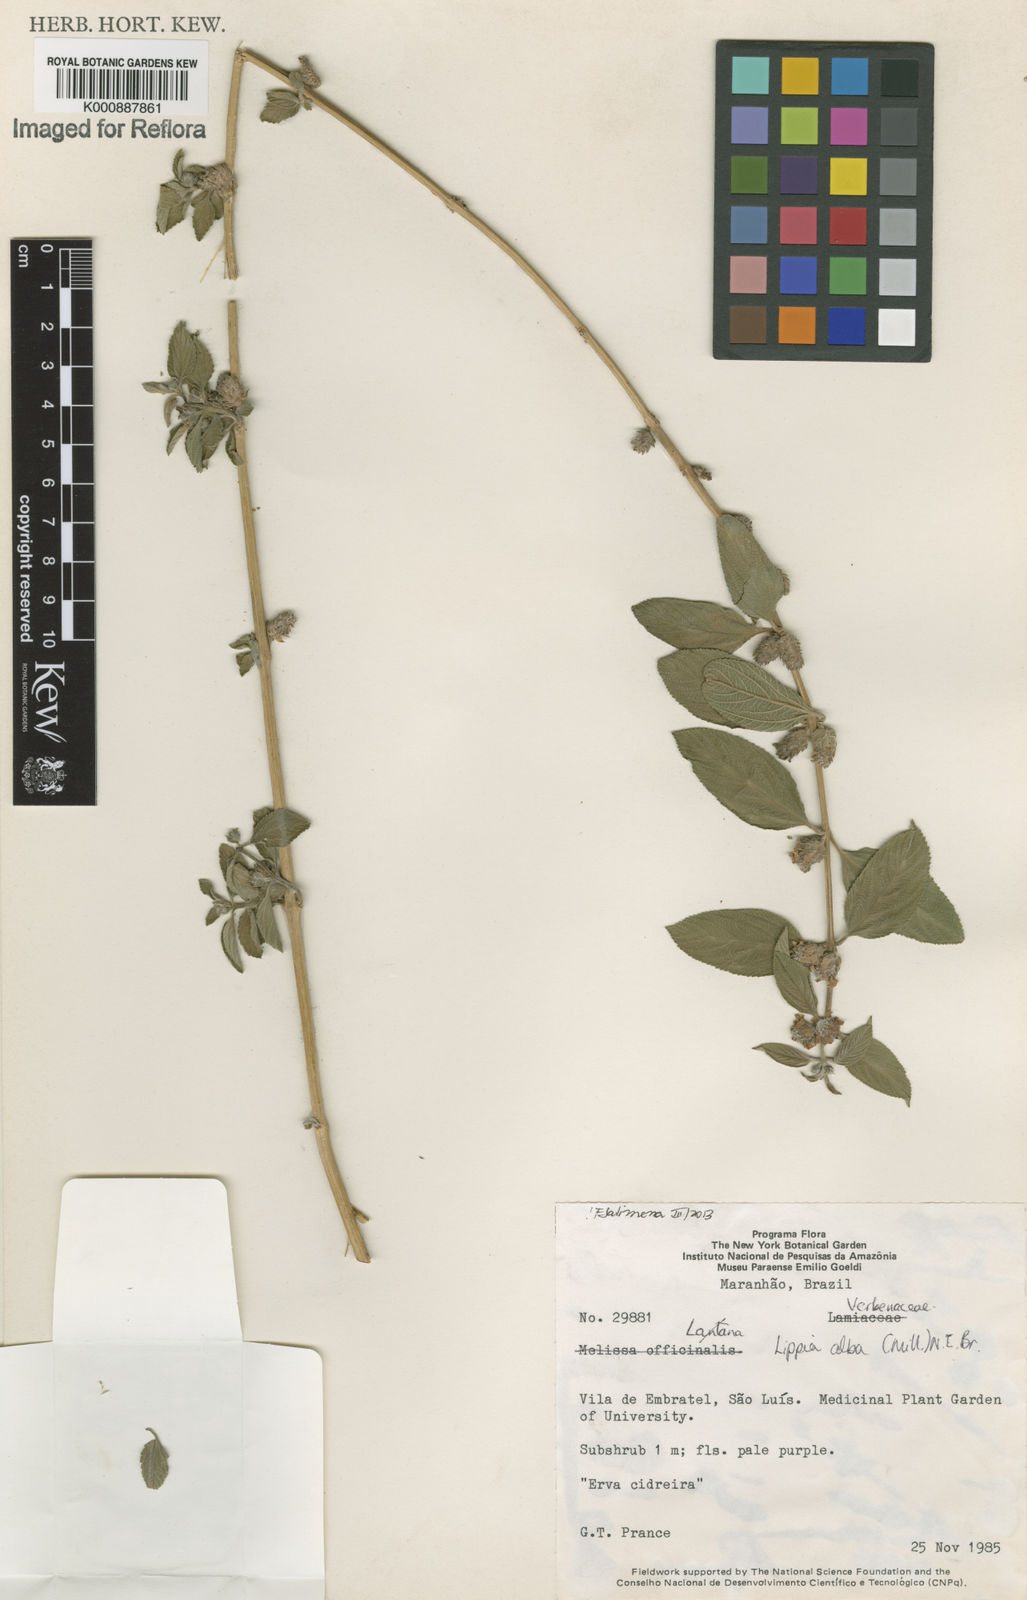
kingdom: Plantae
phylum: Tracheophyta
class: Magnoliopsida
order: Lamiales
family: Verbenaceae
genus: Lippia
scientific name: Lippia
